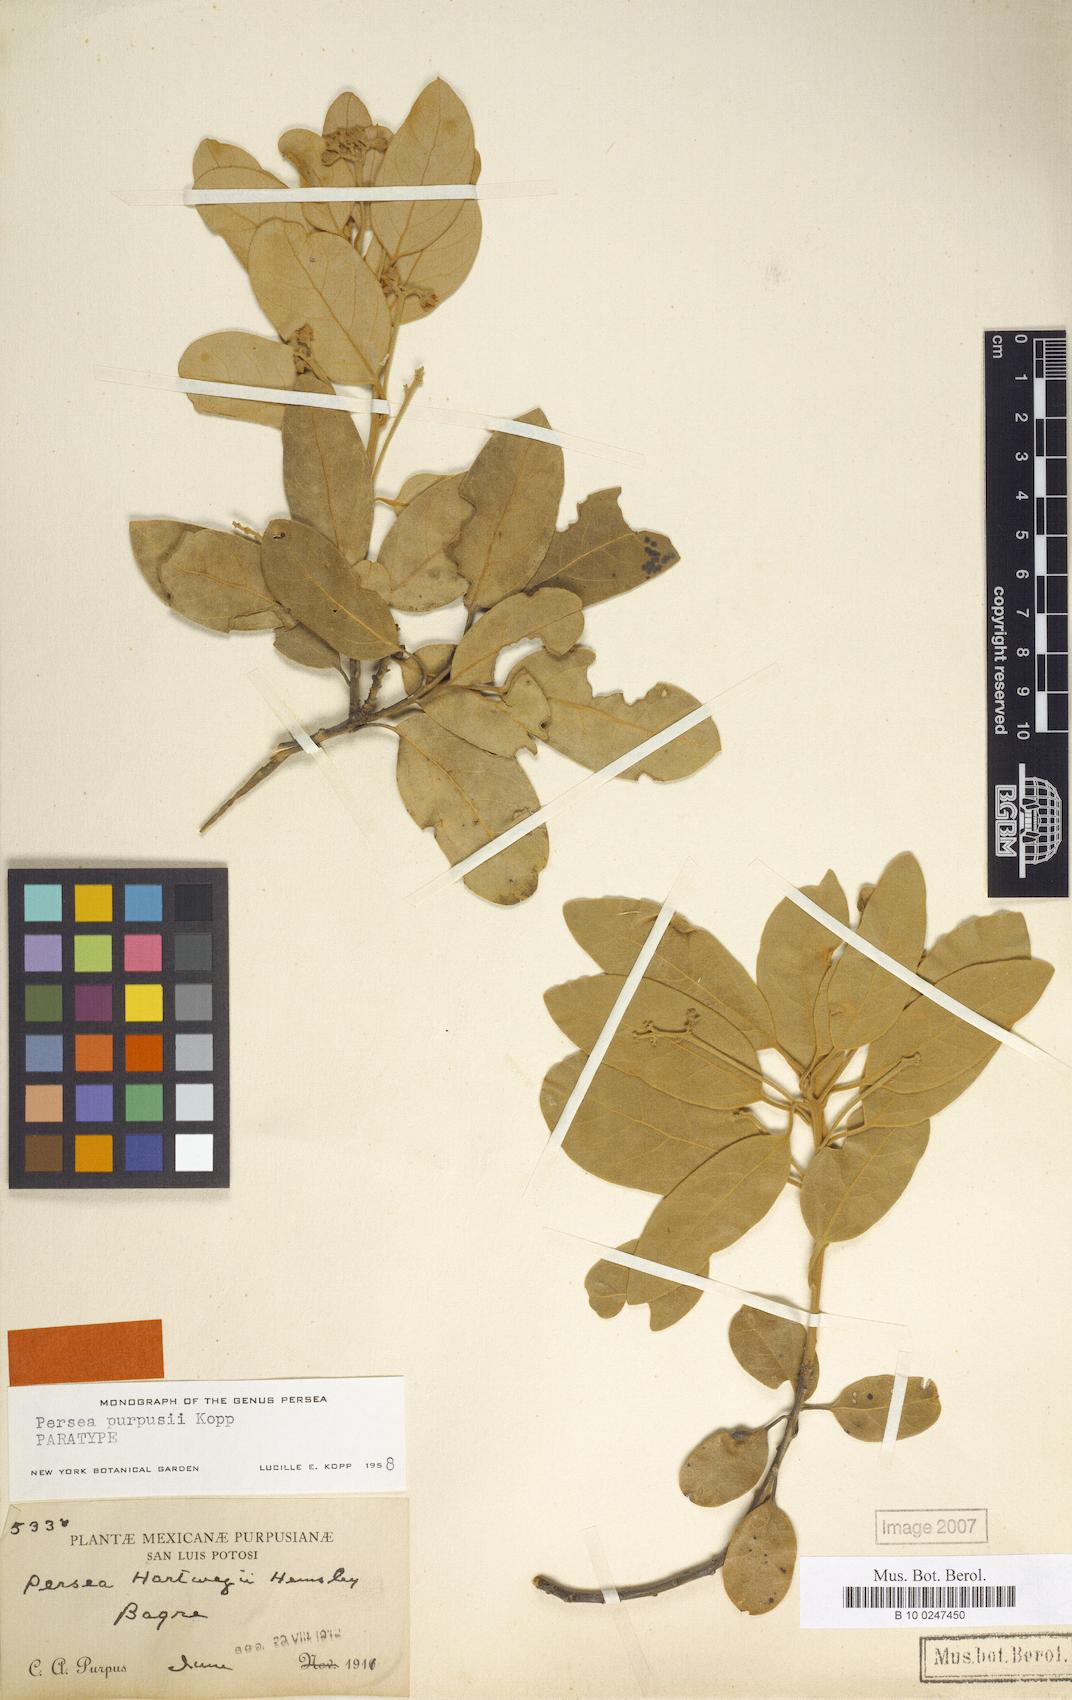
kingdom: Plantae
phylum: Tracheophyta
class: Magnoliopsida
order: Laurales
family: Lauraceae
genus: Persea
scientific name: Persea purpusii
